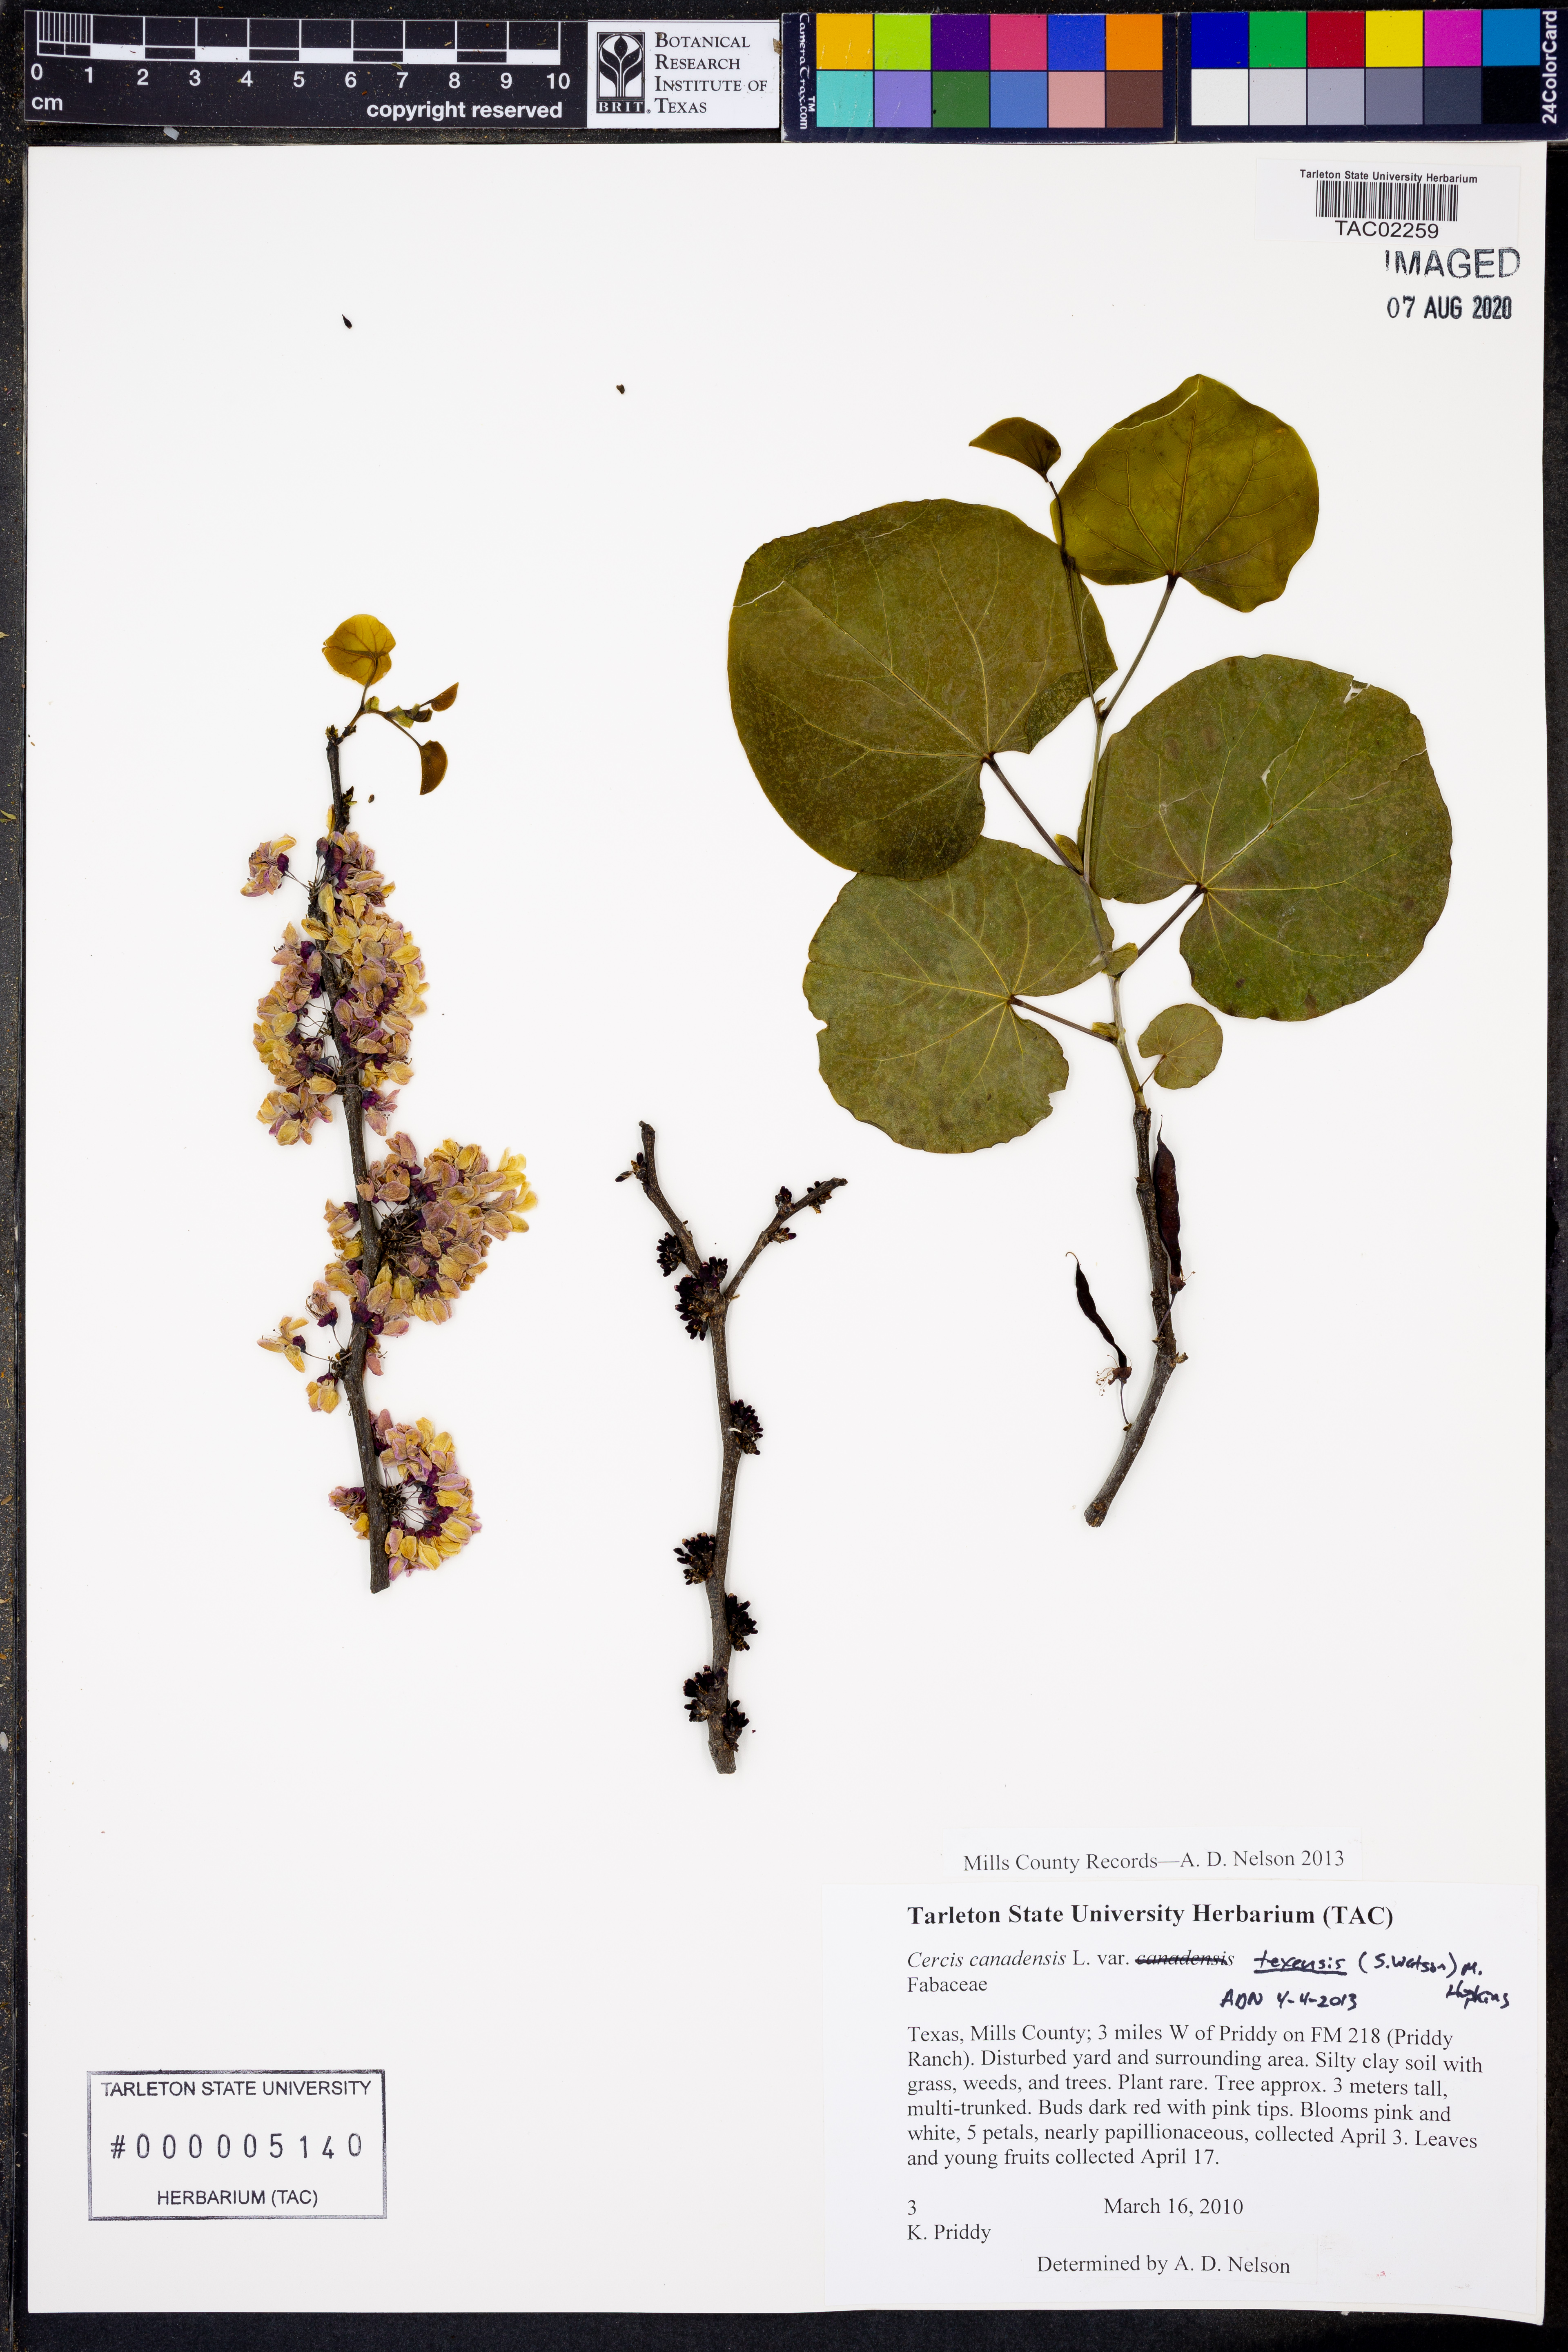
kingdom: Plantae
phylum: Tracheophyta
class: Magnoliopsida
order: Fabales
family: Fabaceae
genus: Cercis
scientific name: Cercis canadensis
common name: Eastern redbud
